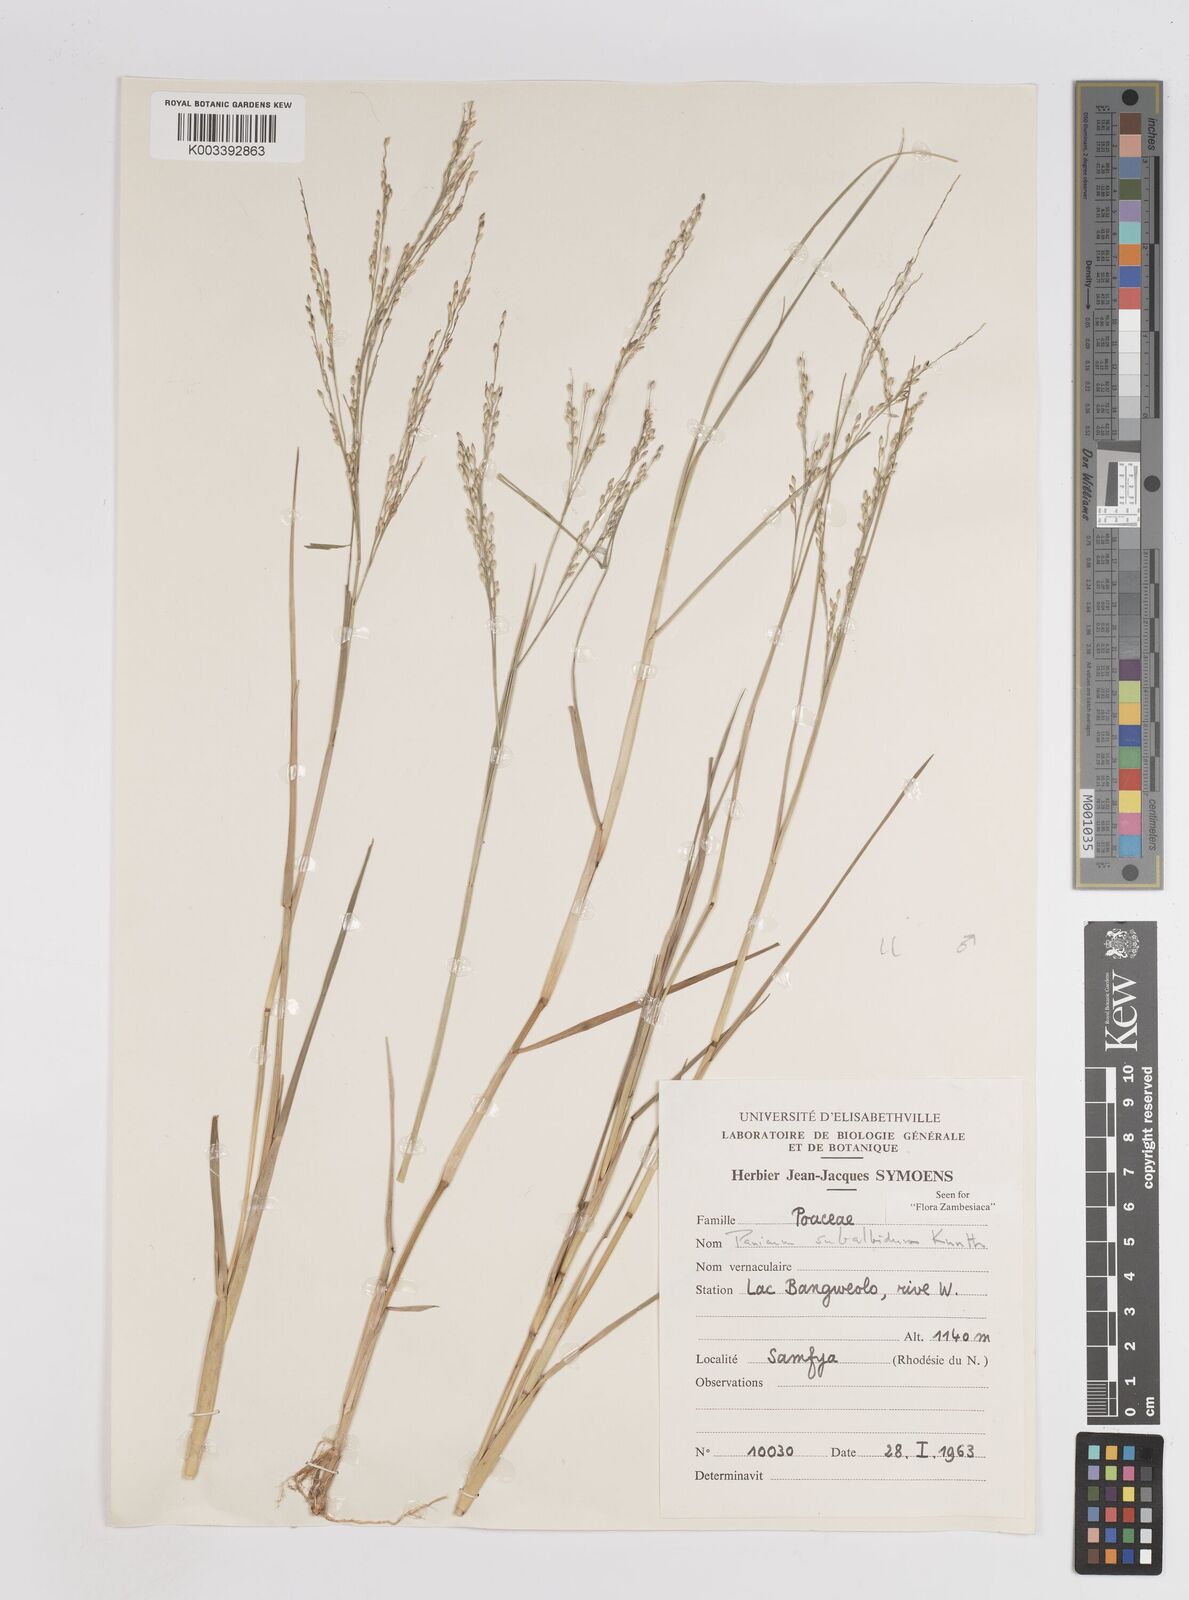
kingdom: Plantae
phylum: Tracheophyta
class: Liliopsida
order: Poales
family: Poaceae
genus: Panicum
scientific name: Panicum subalbidum
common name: Elbow buffalo grass
